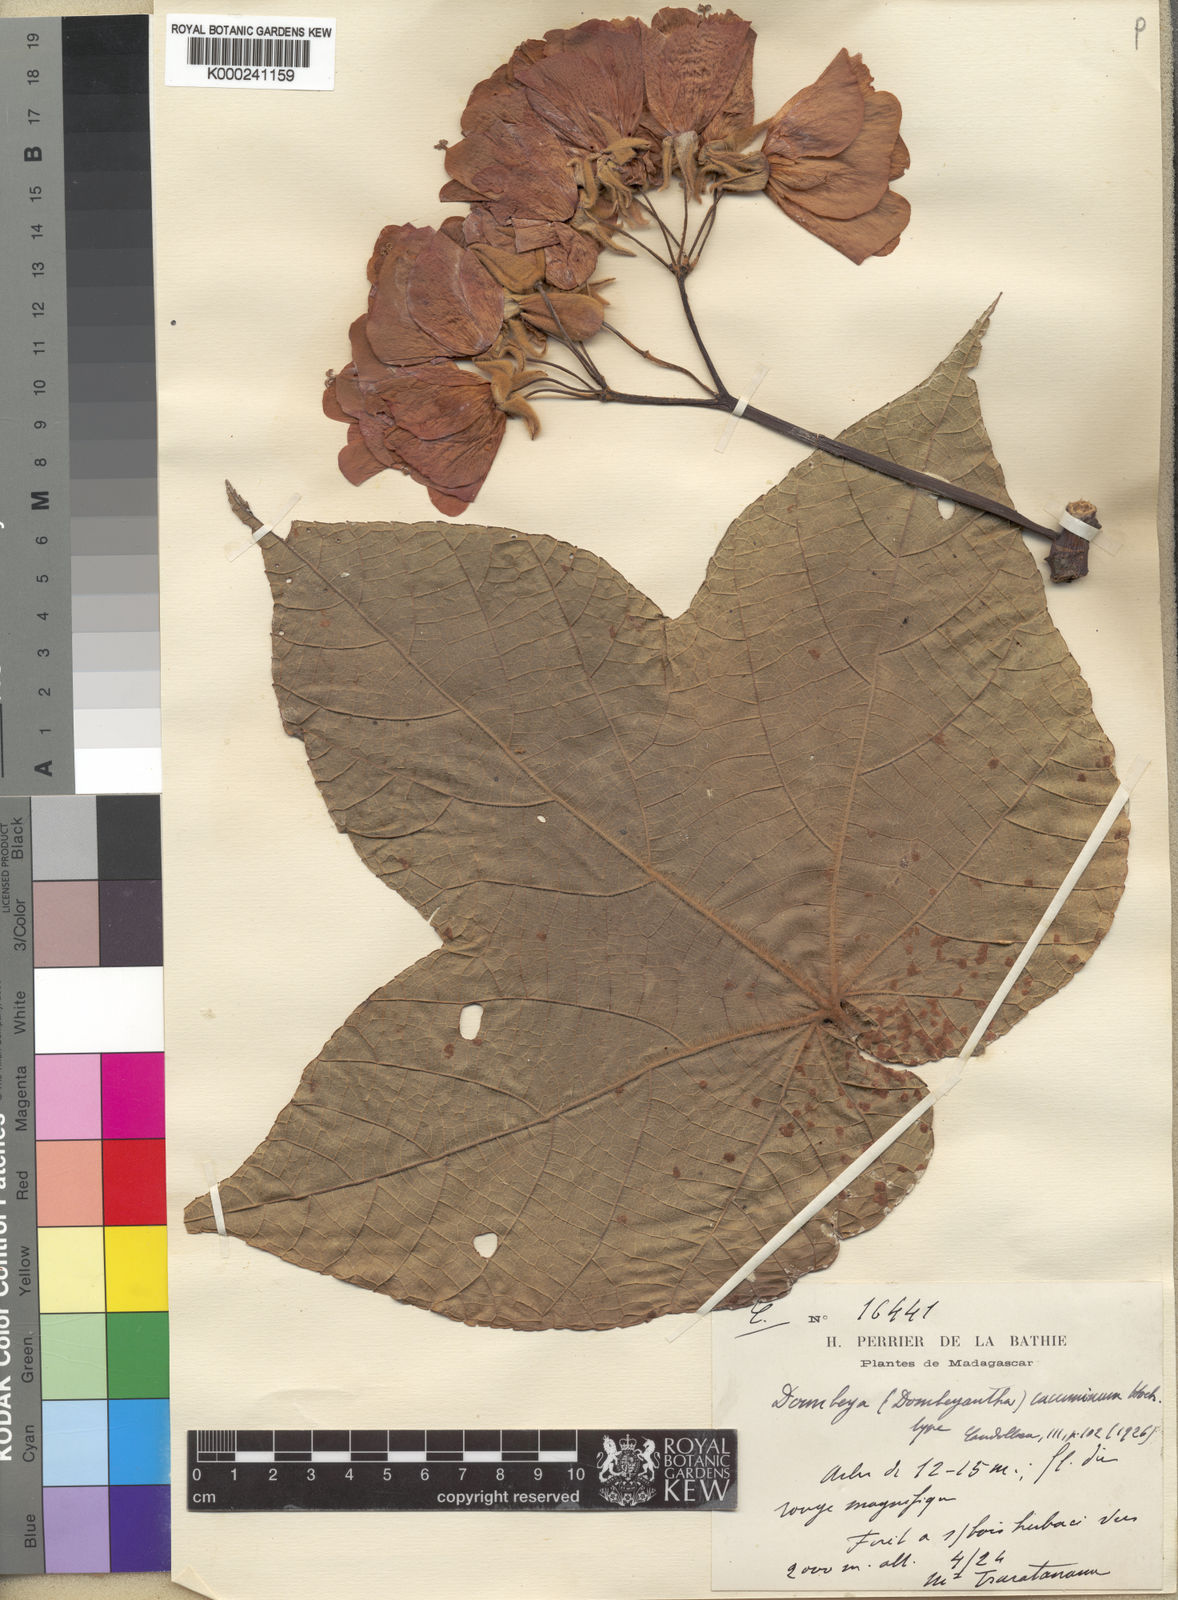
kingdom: Plantae
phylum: Tracheophyta
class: Magnoliopsida
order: Malvales
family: Malvaceae
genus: Dombeya
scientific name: Dombeya cacuminum
